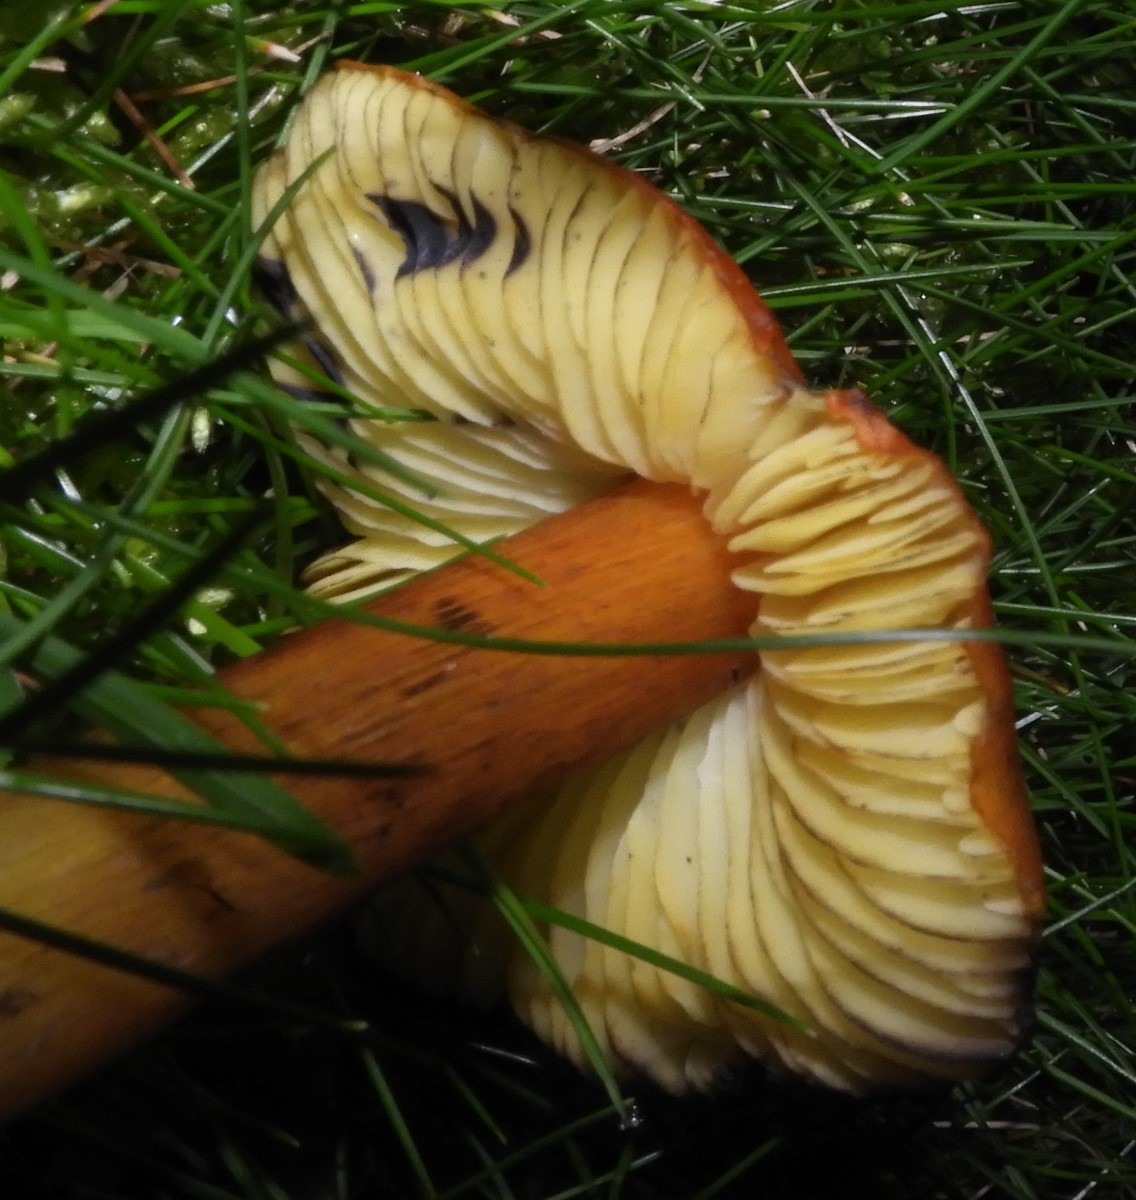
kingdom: Fungi
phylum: Basidiomycota
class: Agaricomycetes
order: Agaricales
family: Hygrophoraceae
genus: Hygrocybe
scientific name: Hygrocybe conica
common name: kegle-vokshat
